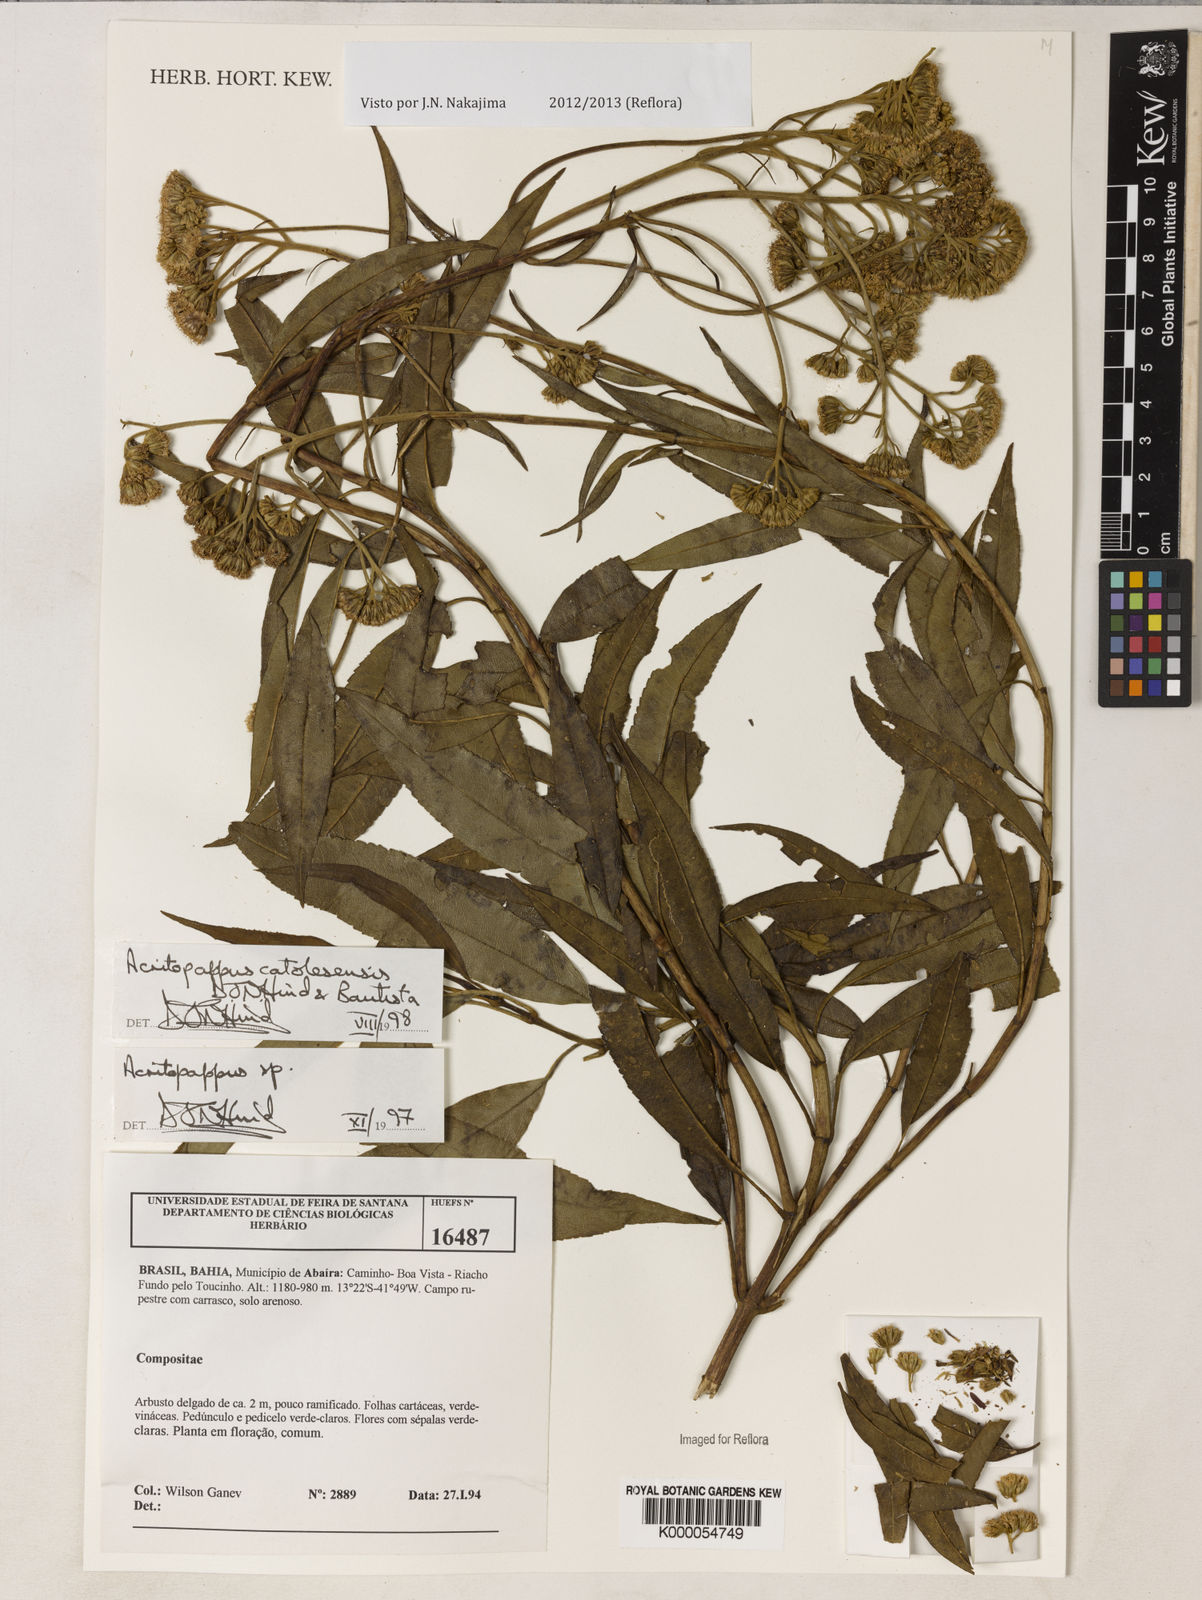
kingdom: Plantae
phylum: Tracheophyta
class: Magnoliopsida
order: Asterales
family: Asteraceae
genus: Acritopappus
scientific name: Acritopappus catolesensis
